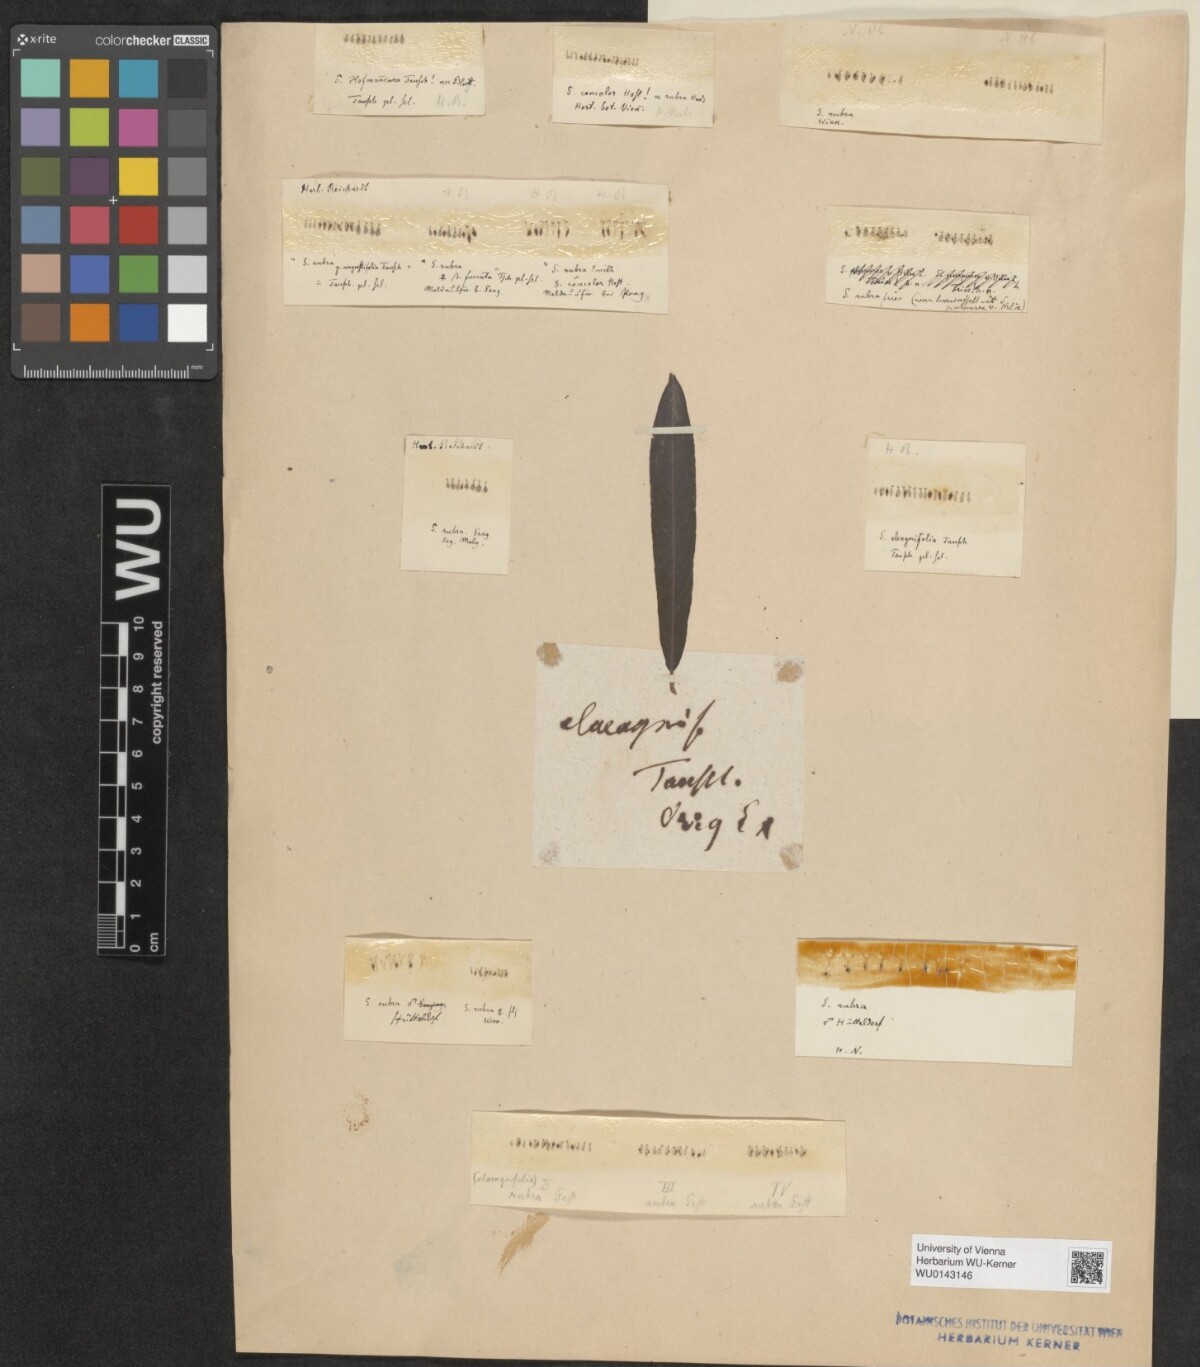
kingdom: Plantae
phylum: Tracheophyta
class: Magnoliopsida
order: Malpighiales
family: Salicaceae
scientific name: Salicaceae
